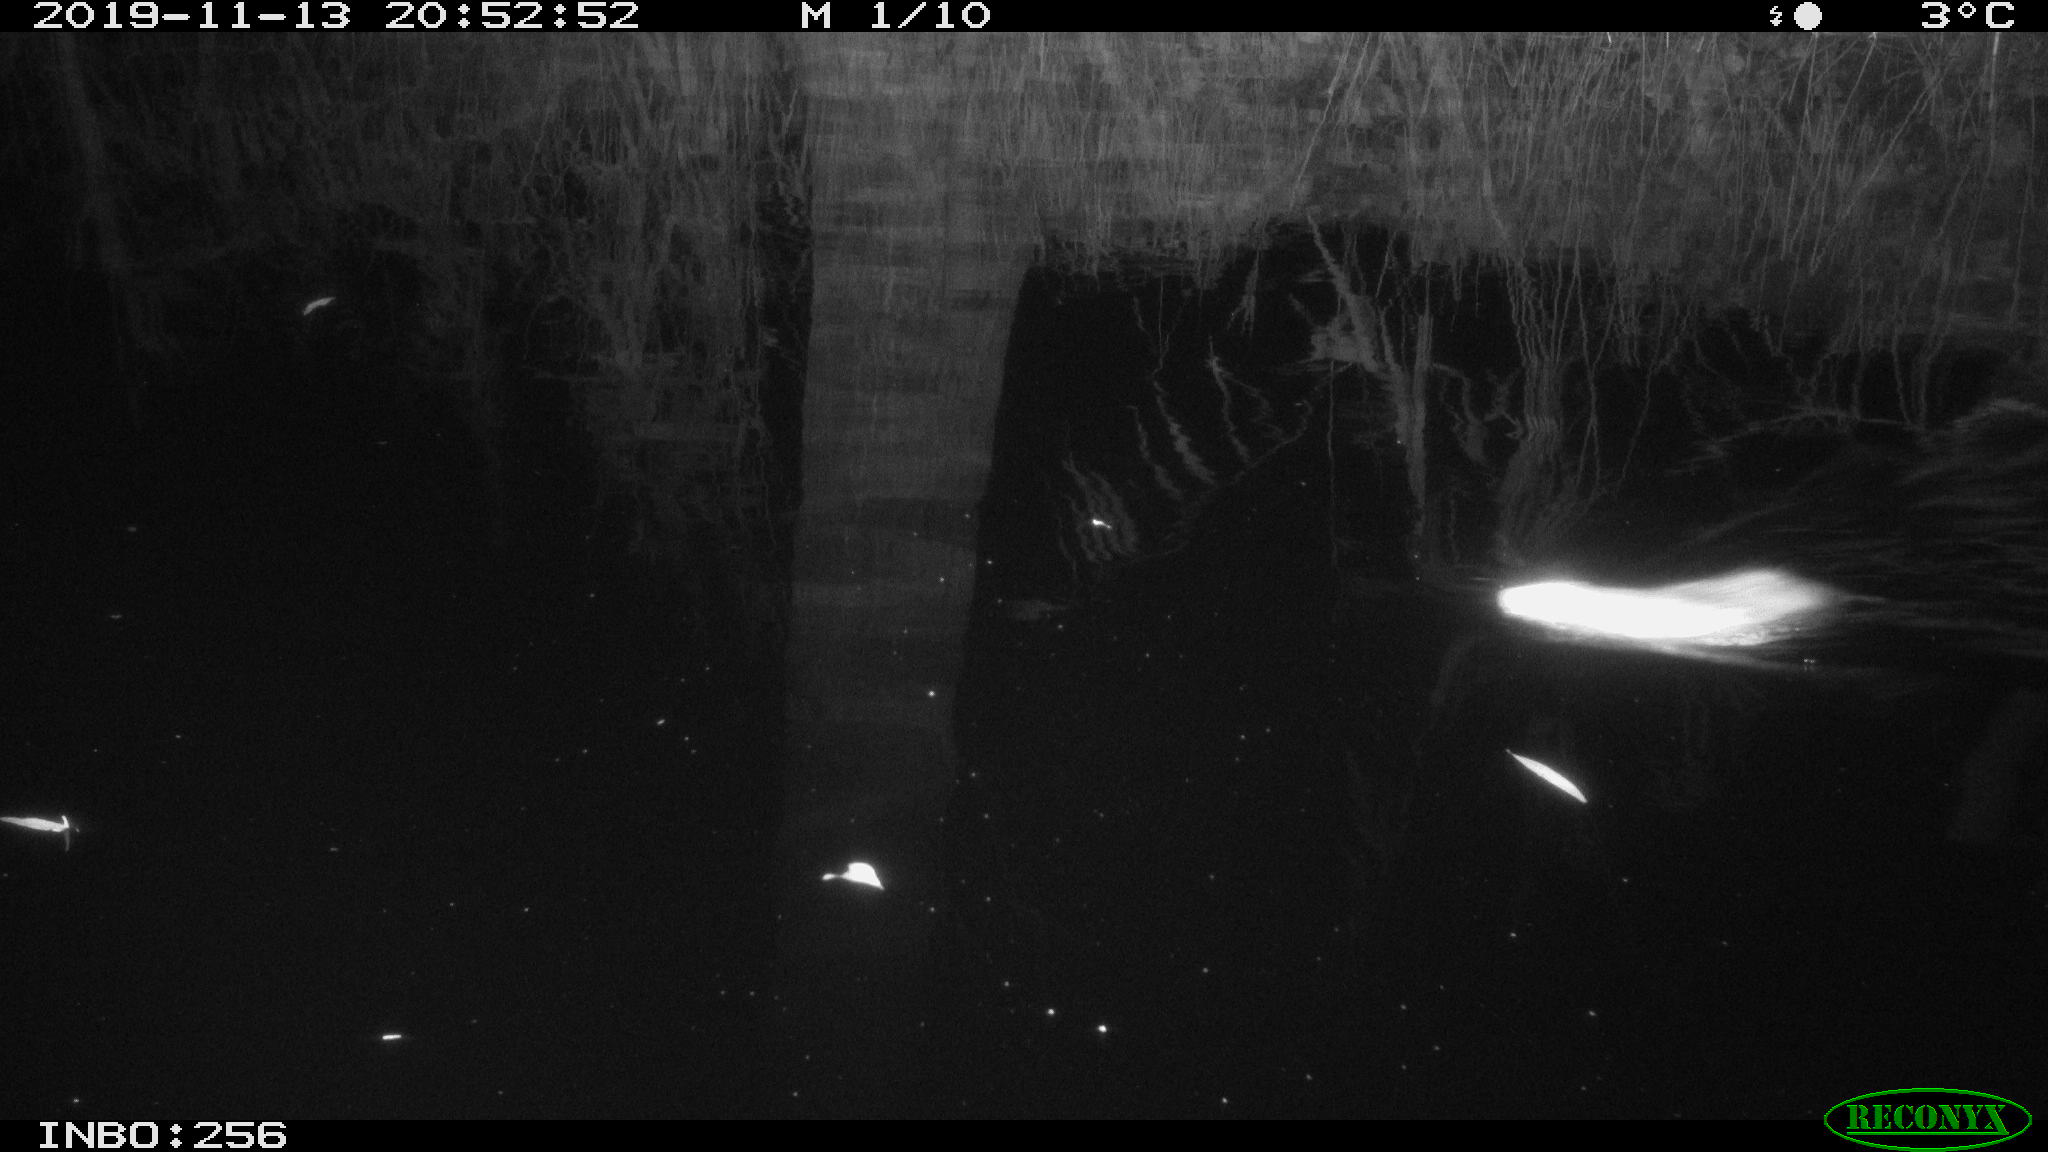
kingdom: Animalia
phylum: Chordata
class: Mammalia
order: Rodentia
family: Muridae
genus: Rattus
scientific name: Rattus norvegicus
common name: Brown rat
